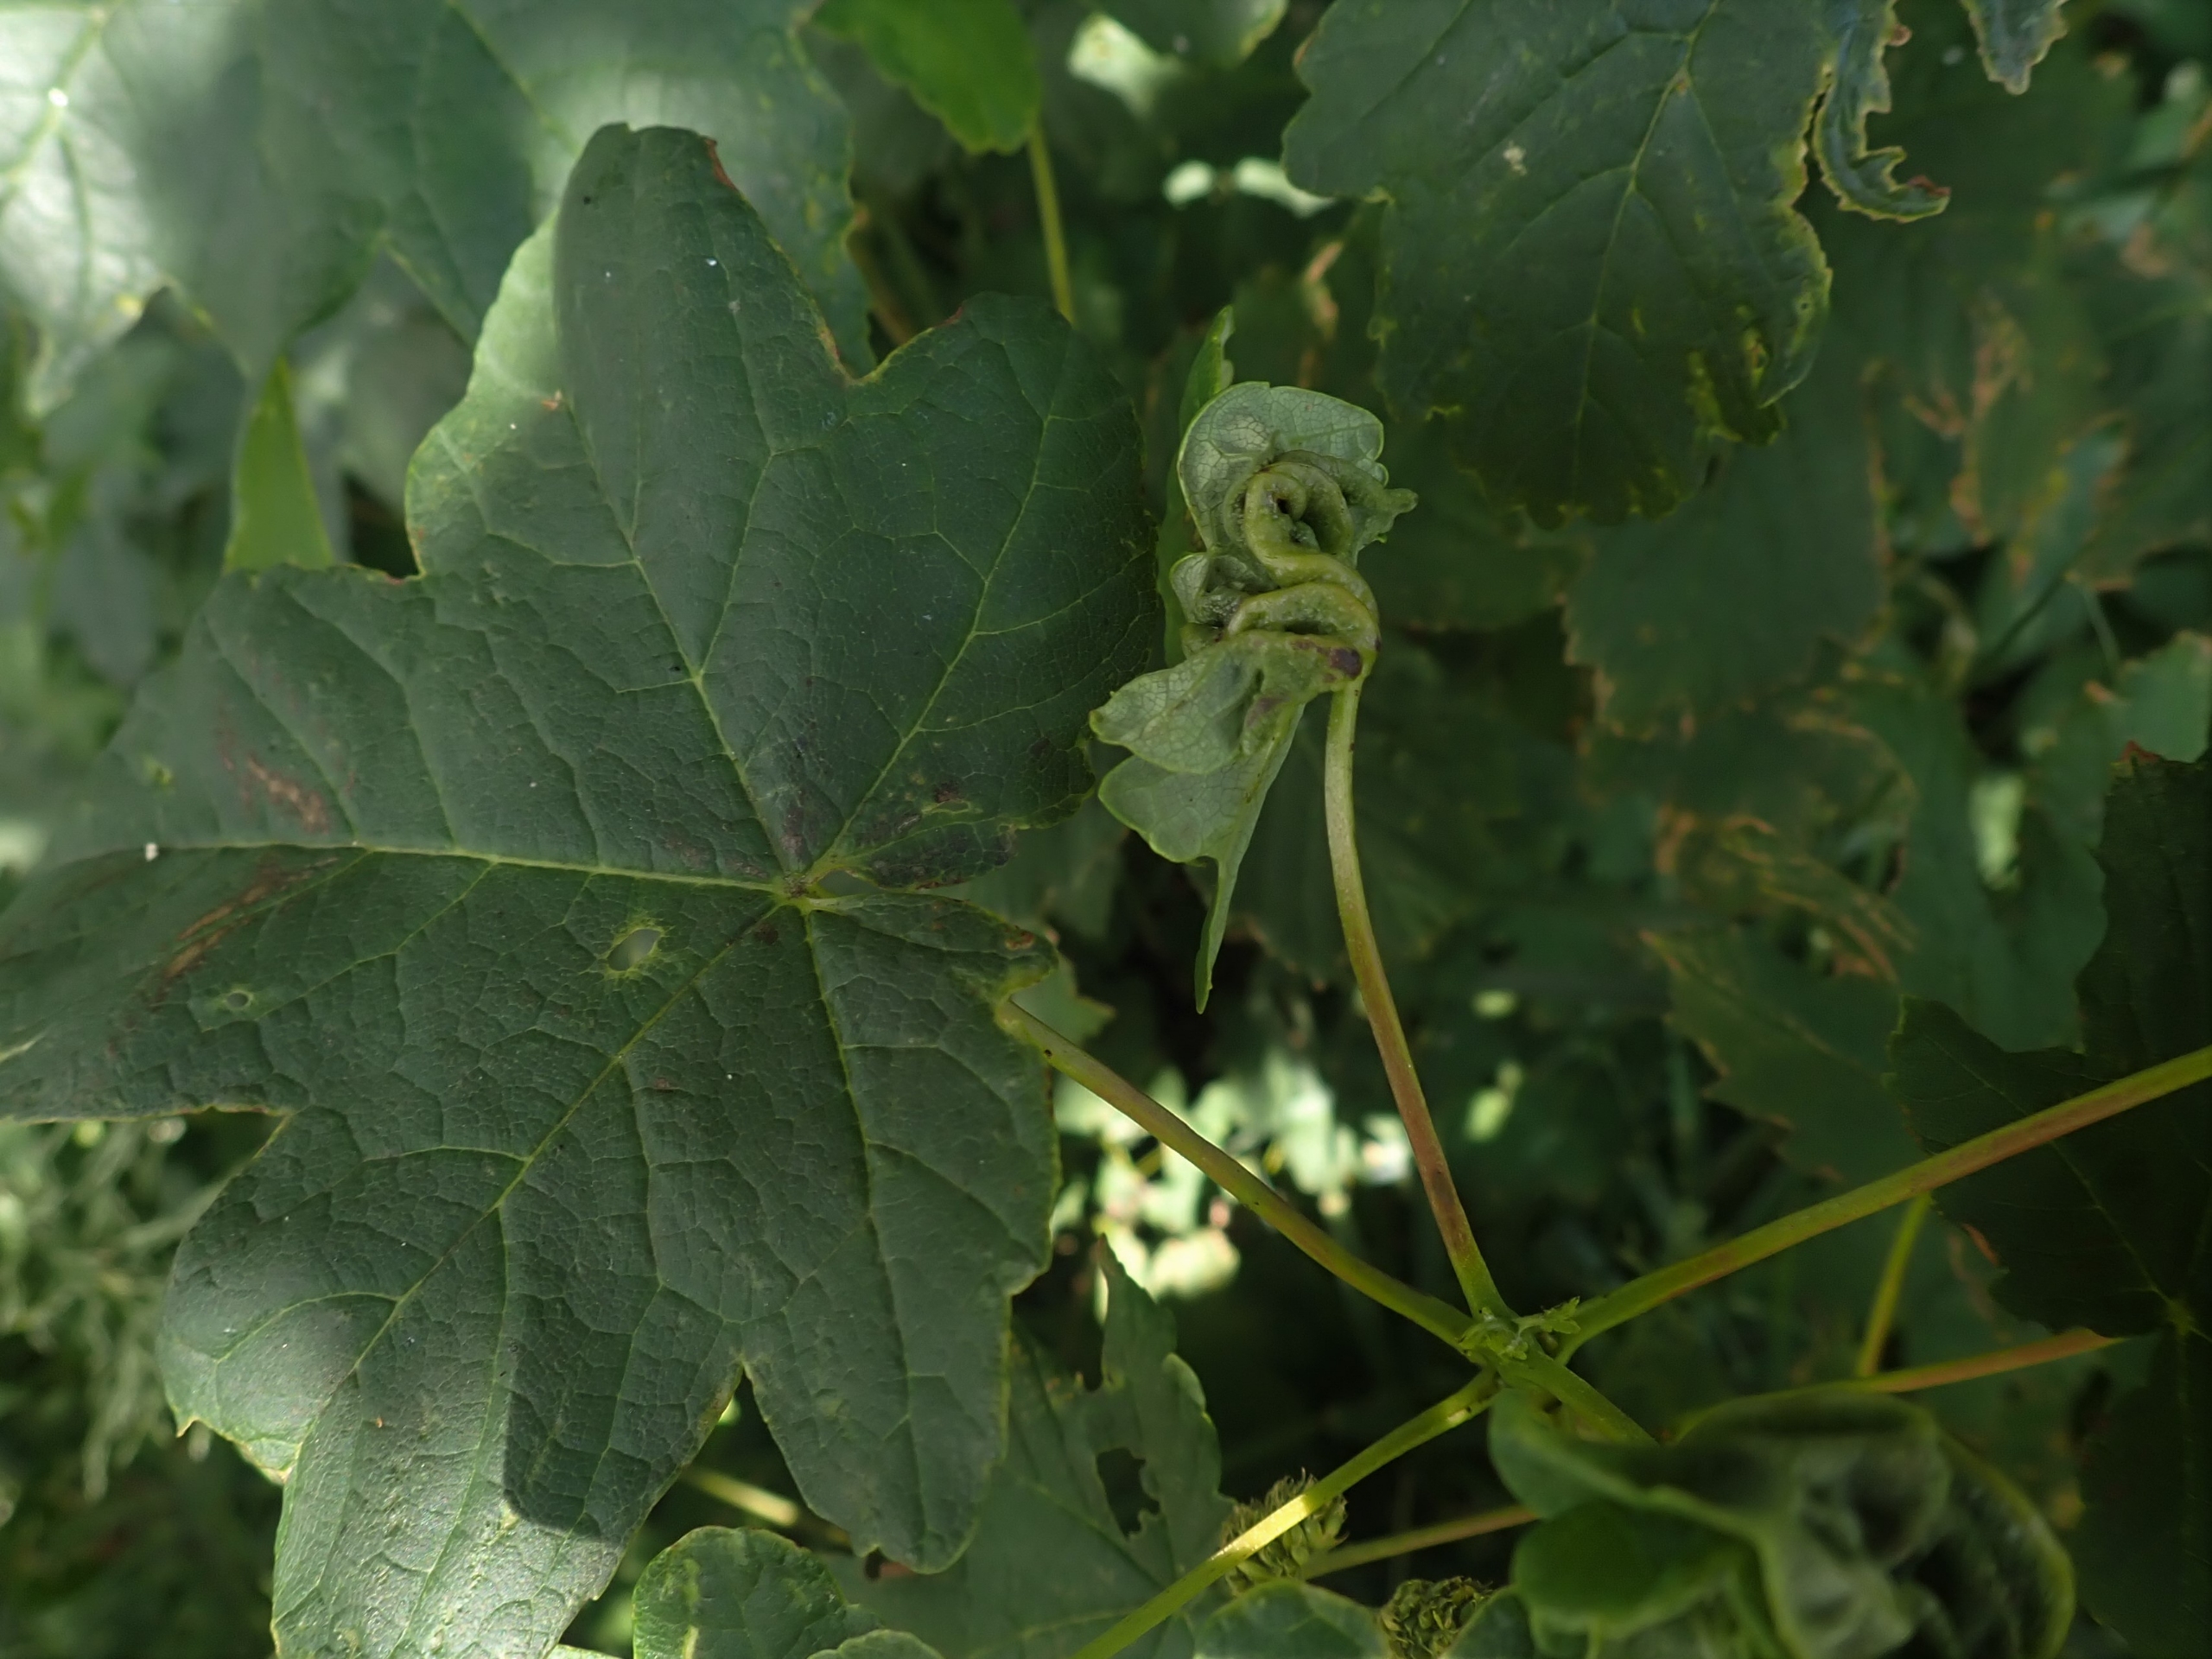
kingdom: Animalia
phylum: Arthropoda
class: Insecta
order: Diptera
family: Cecidomyiidae
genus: Dasineura
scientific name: Dasineura irregularis
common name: Ahornkrusegalmyg
